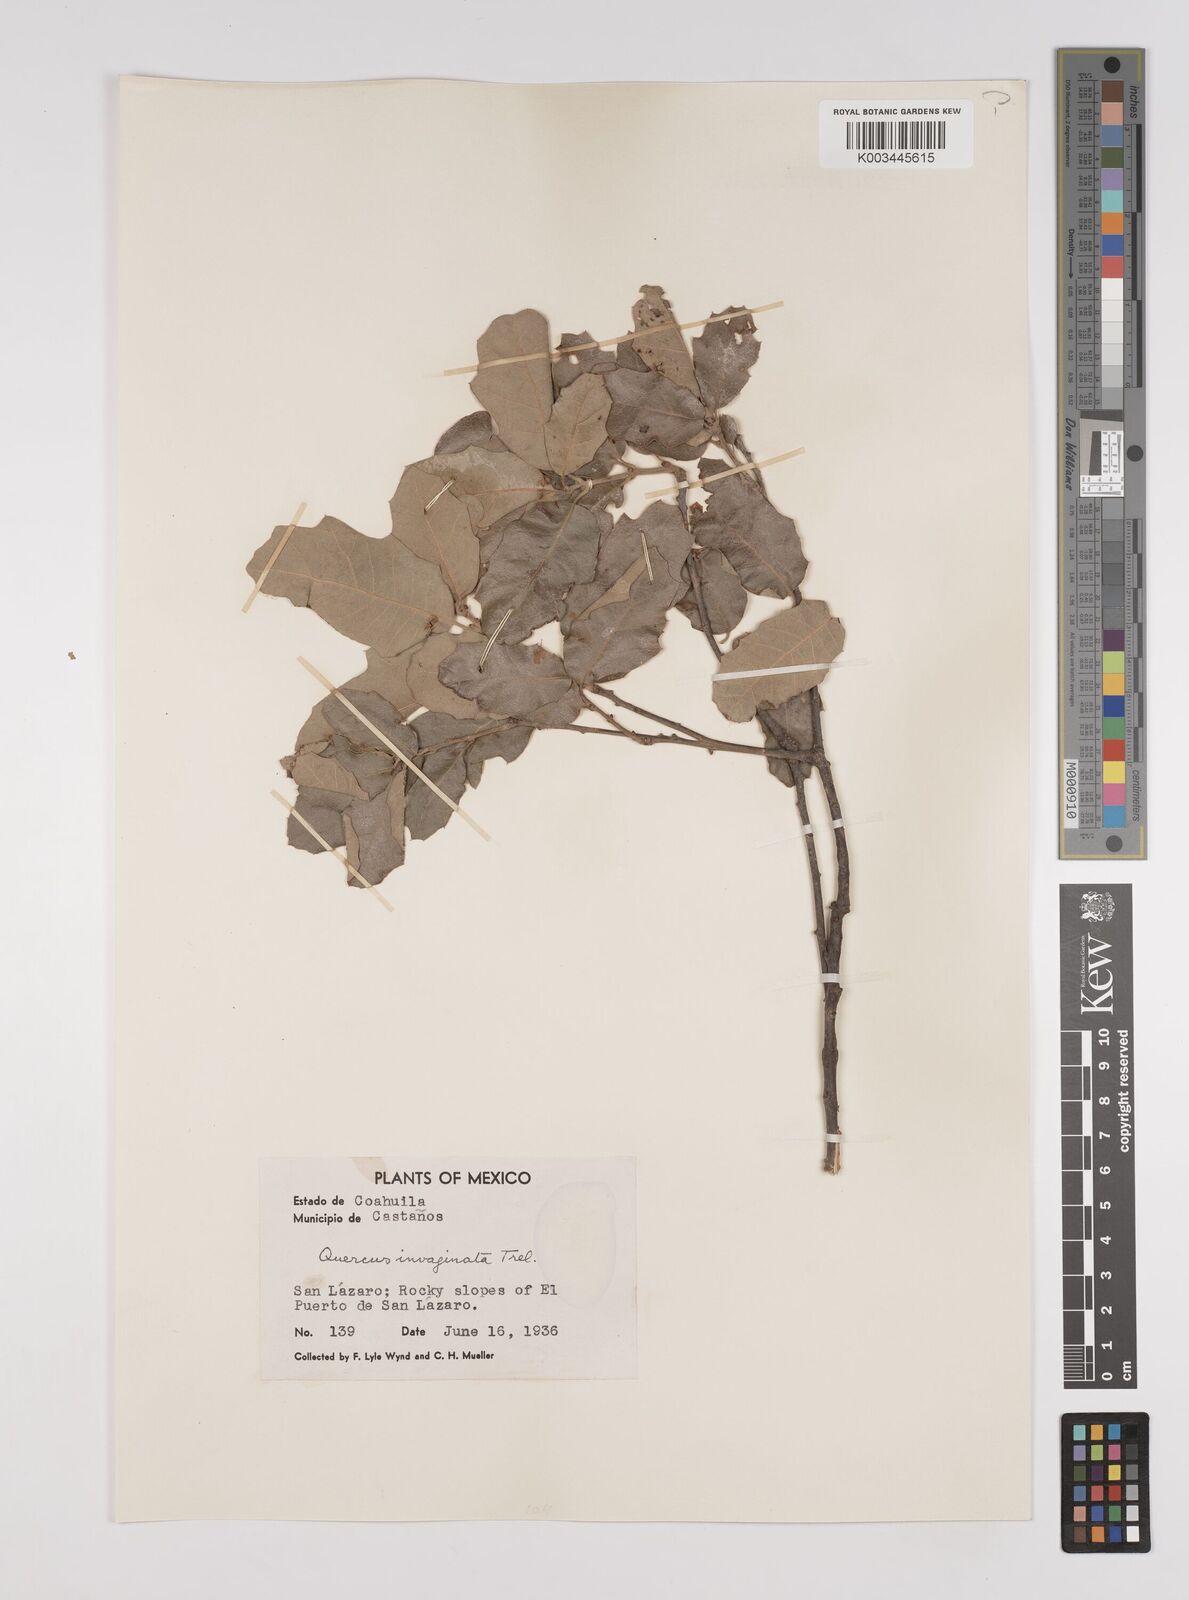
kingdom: Plantae
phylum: Tracheophyta
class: Magnoliopsida
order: Fagales
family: Fagaceae
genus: Quercus
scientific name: Quercus invaginata
